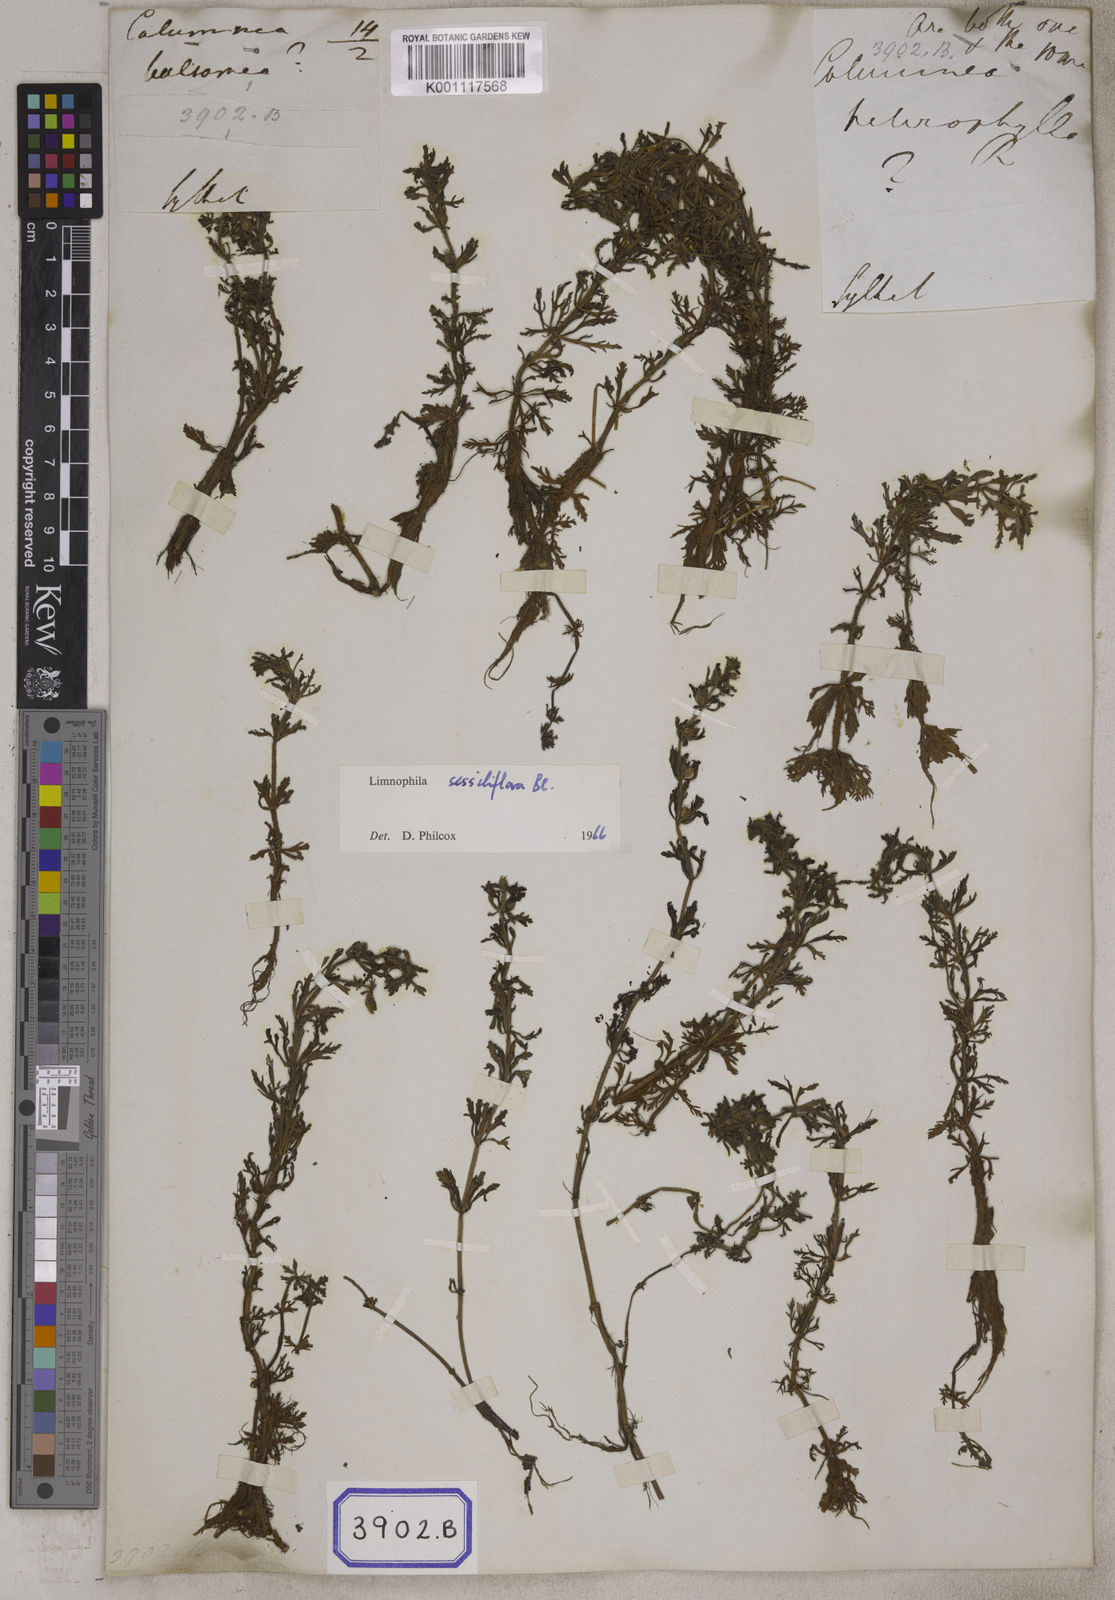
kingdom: Plantae
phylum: Tracheophyta
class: Magnoliopsida
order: Lamiales
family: Plantaginaceae
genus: Limnophila
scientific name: Limnophila sessiliflora
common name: Asian marshweed
